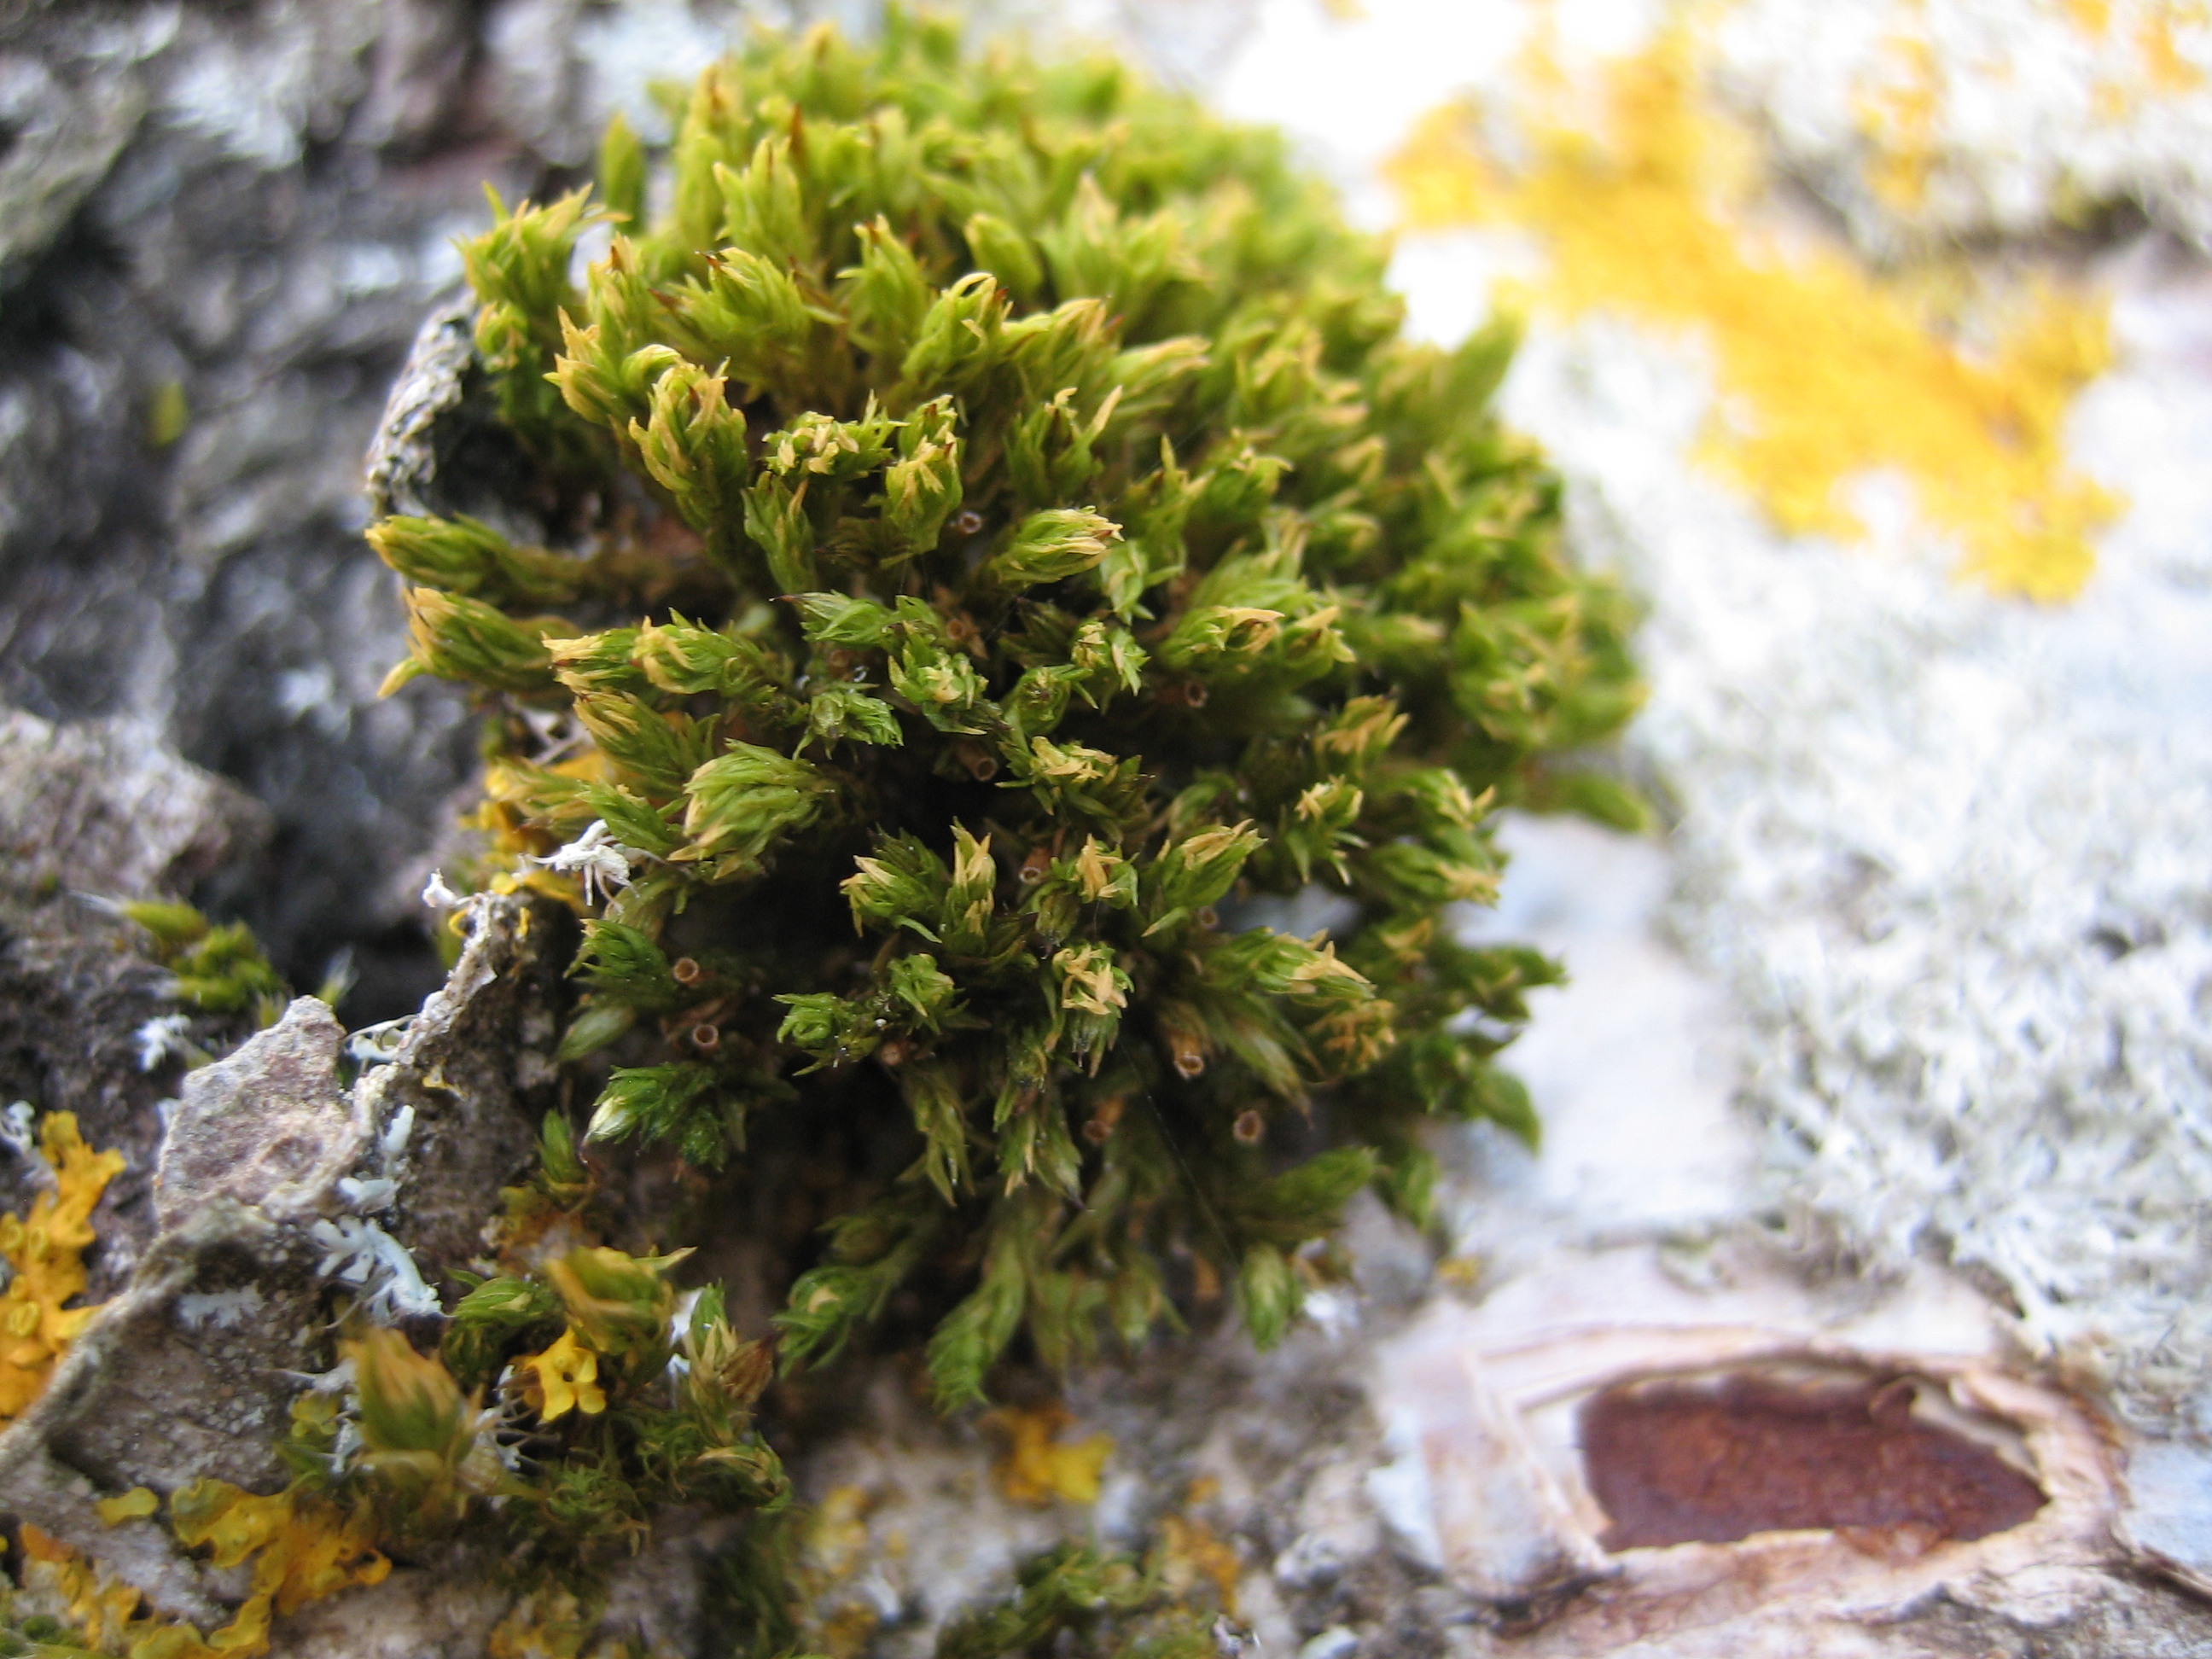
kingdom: Plantae
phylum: Bryophyta
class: Bryopsida
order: Orthotrichales
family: Orthotrichaceae
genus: Lewinskya
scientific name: Lewinskya affinis
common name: Almindelig furehætte
